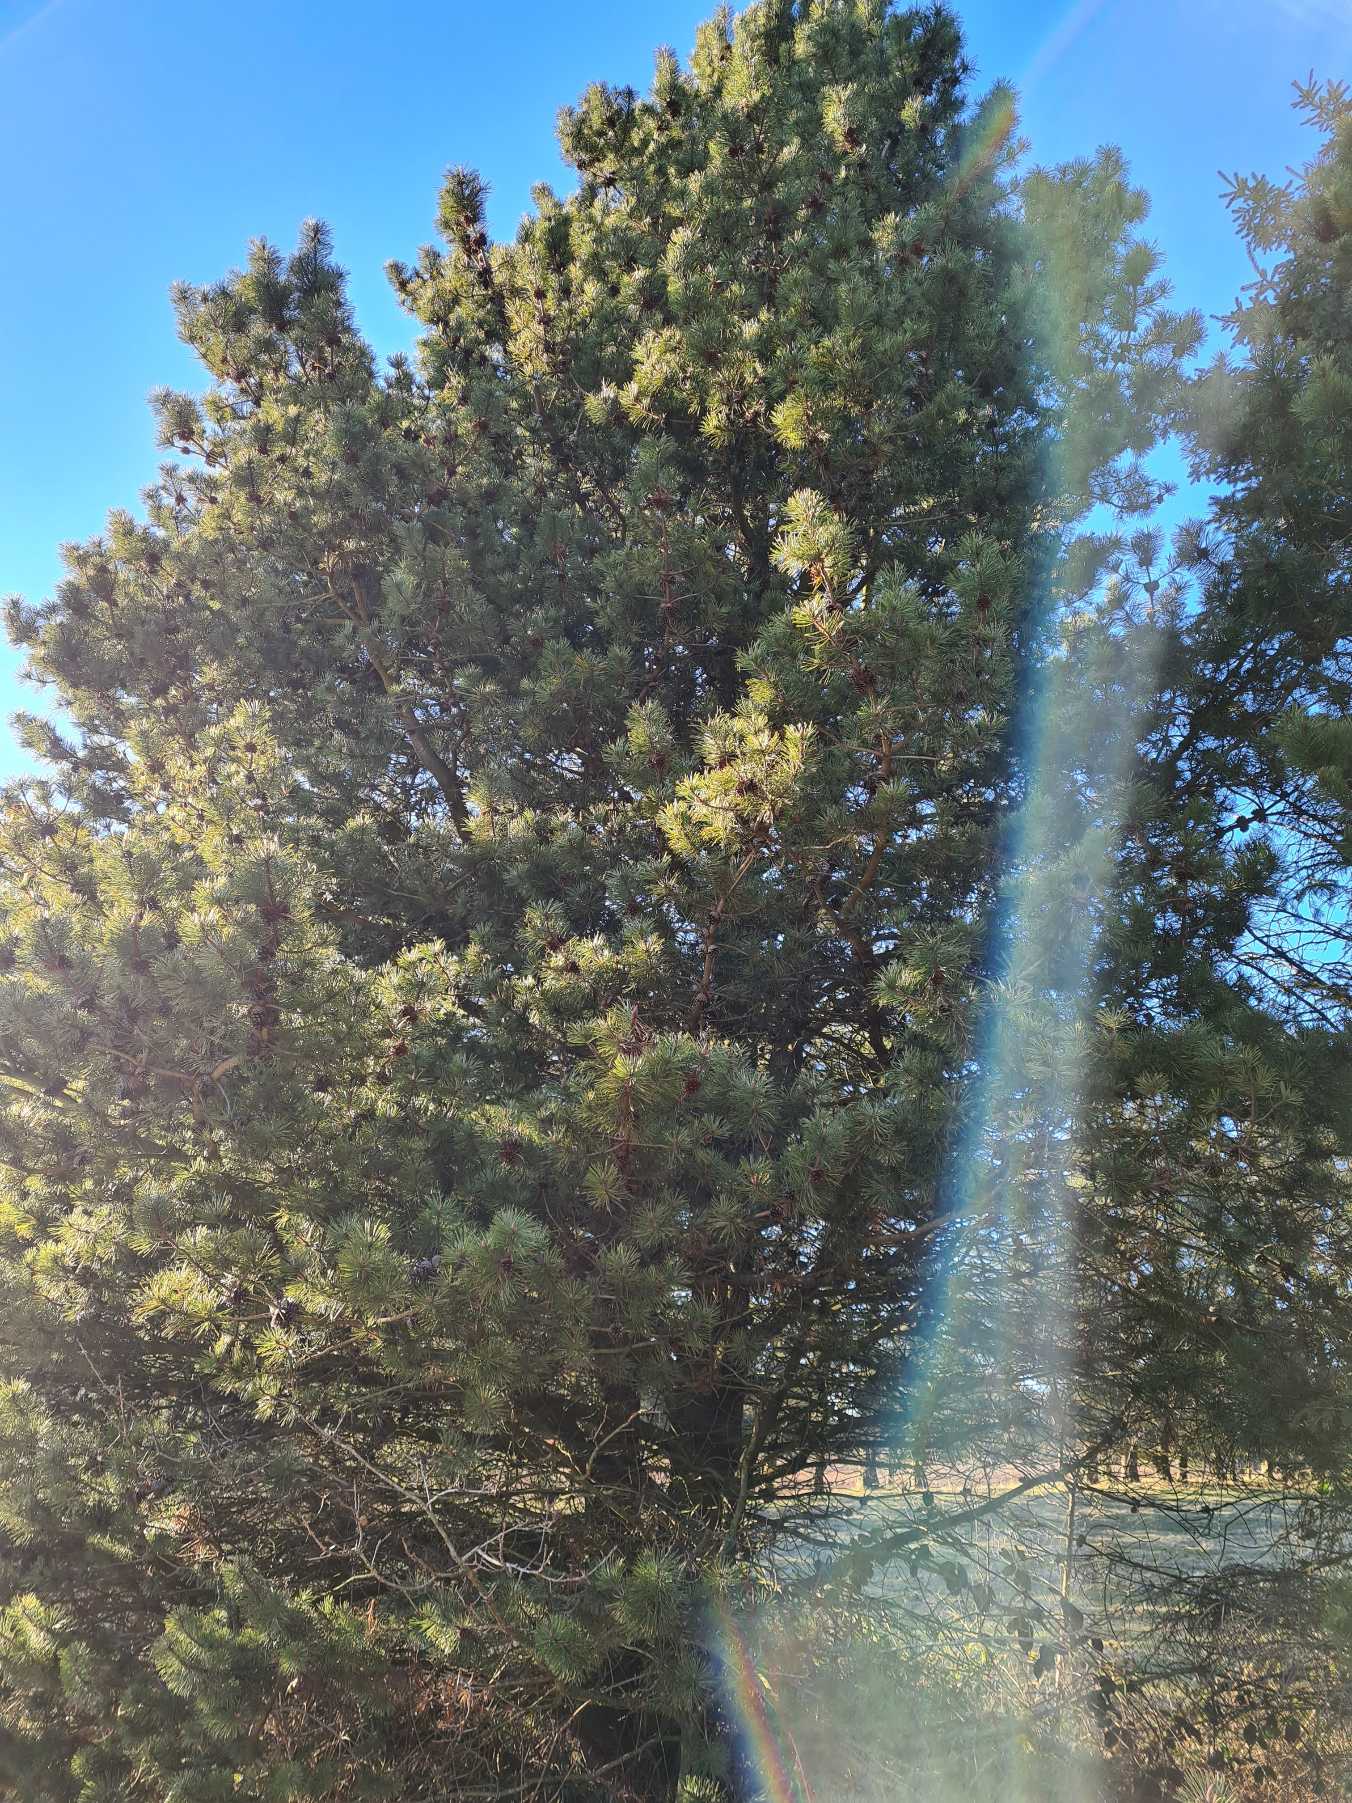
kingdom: Plantae
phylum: Tracheophyta
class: Pinopsida
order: Pinales
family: Pinaceae
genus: Pinus
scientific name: Pinus contorta
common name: Klit-fyr
